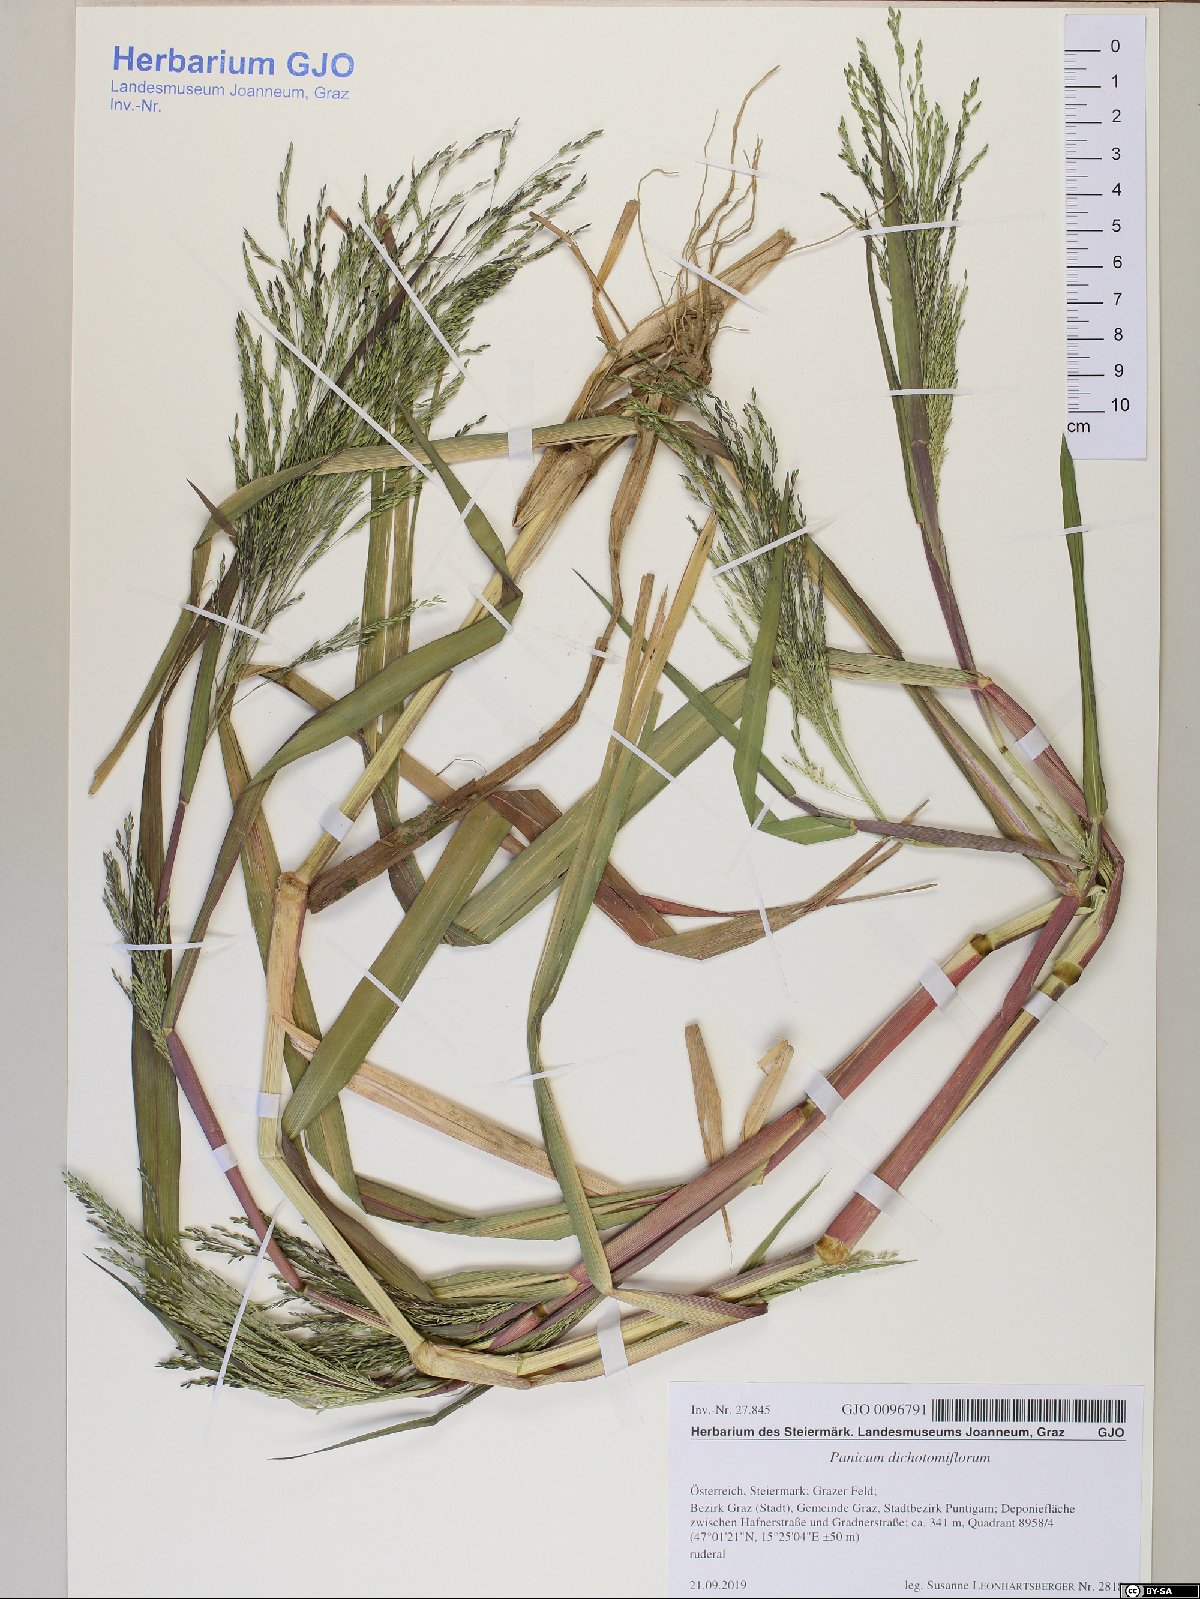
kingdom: Plantae
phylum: Tracheophyta
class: Liliopsida
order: Poales
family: Poaceae
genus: Panicum
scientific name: Panicum dichotomiflorum
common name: Autumn millet
